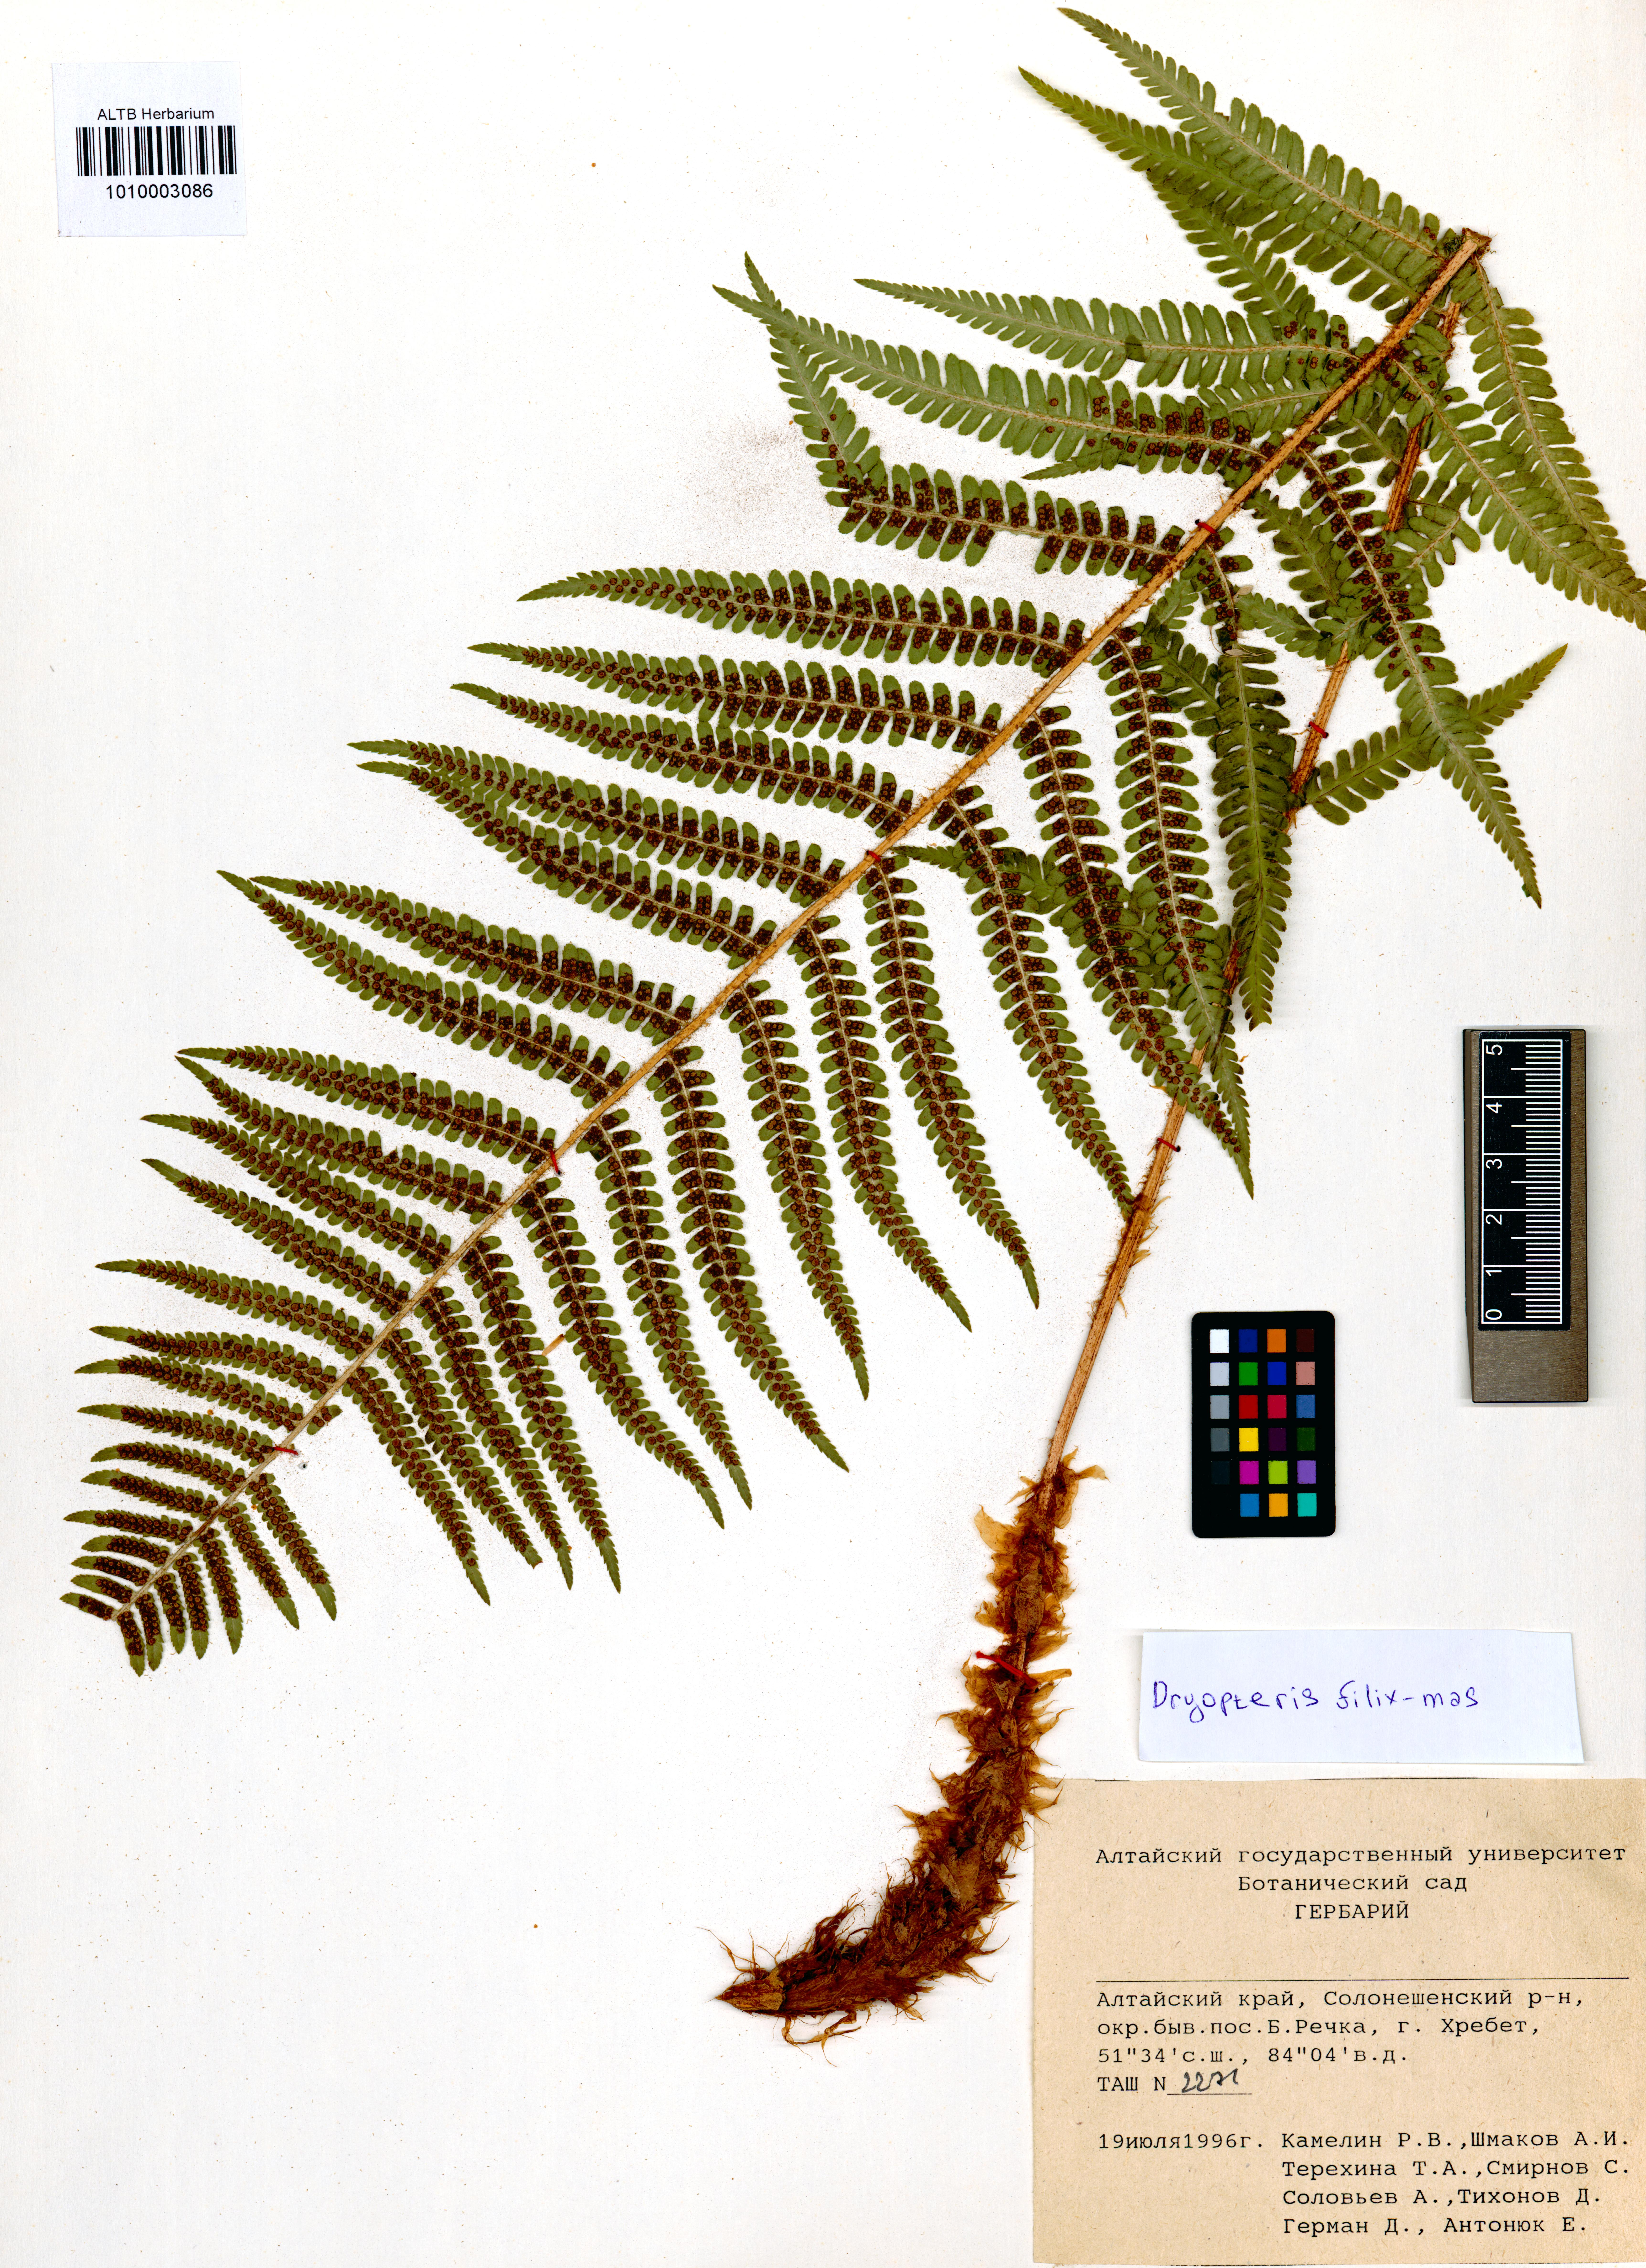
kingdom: Plantae
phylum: Tracheophyta
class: Polypodiopsida
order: Polypodiales
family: Dryopteridaceae
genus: Dryopteris
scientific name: Dryopteris filix-mas
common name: Male fern
